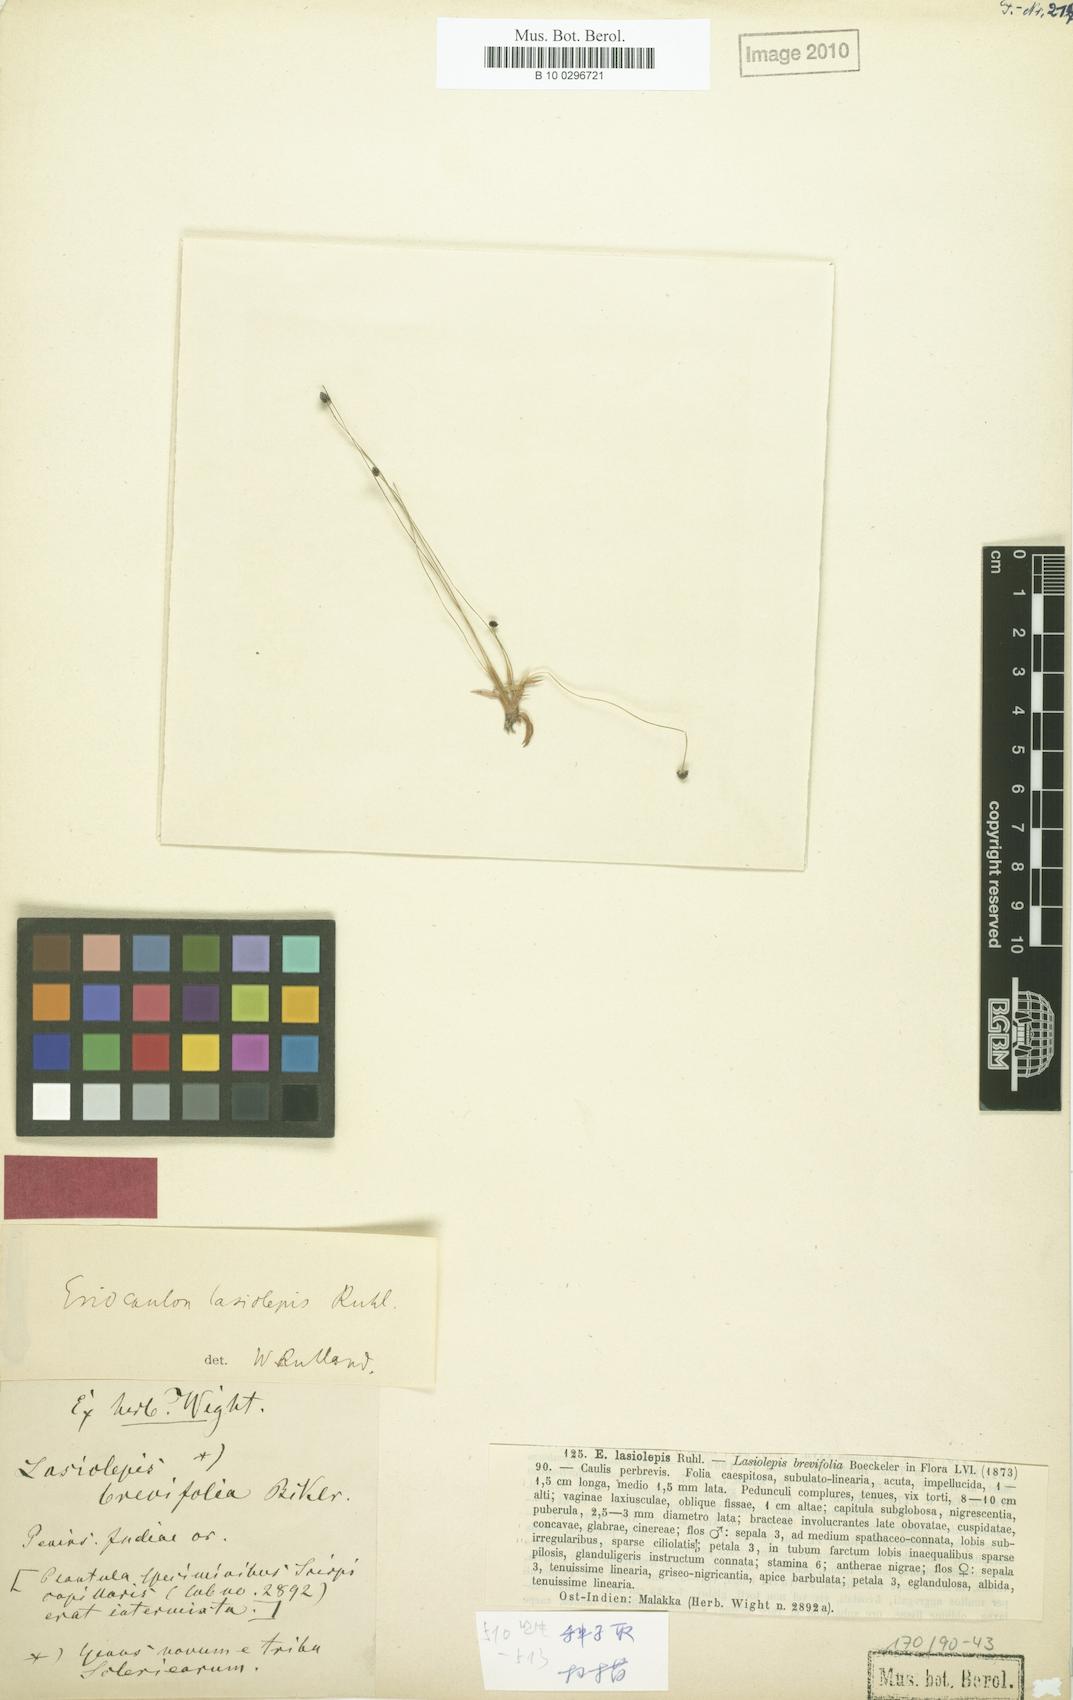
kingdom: Plantae
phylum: Tracheophyta
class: Liliopsida
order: Poales
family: Eriocaulaceae
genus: Eriocaulon
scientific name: Eriocaulon lasiolepis
